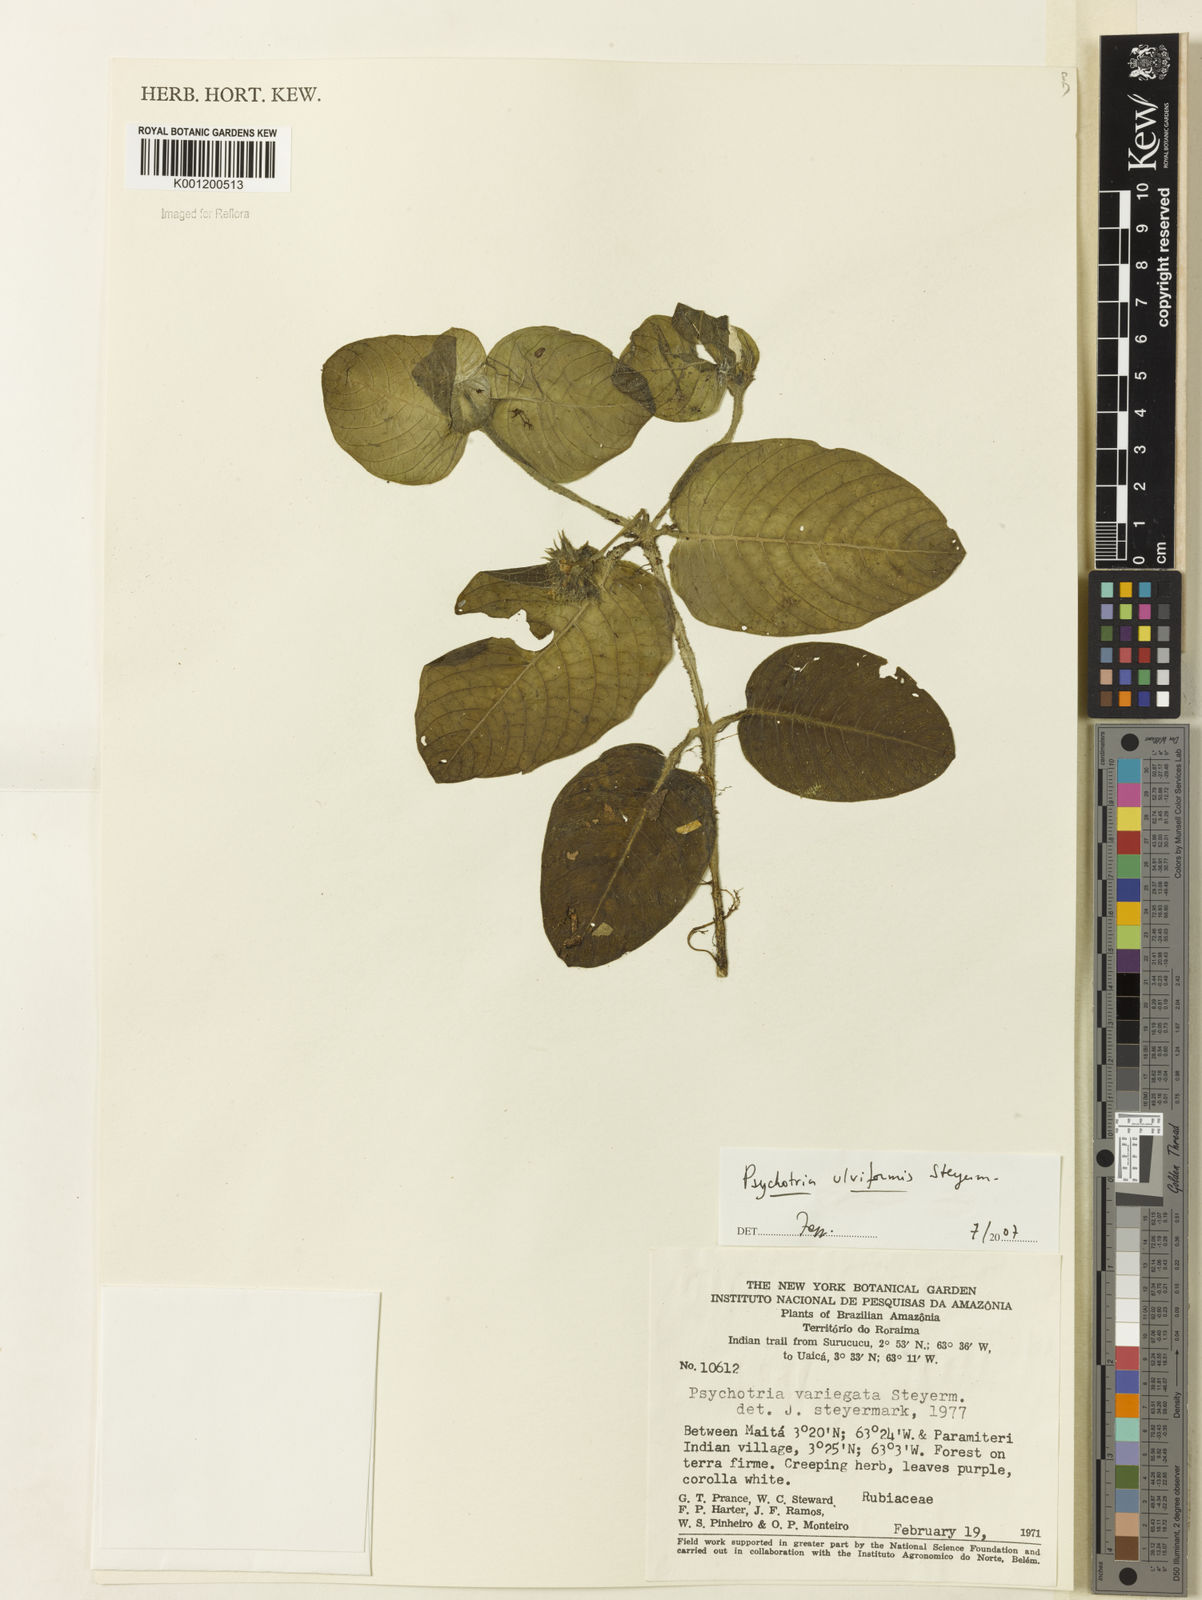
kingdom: Plantae
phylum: Tracheophyta
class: Magnoliopsida
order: Gentianales
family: Rubiaceae
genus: Palicourea
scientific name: Palicourea alba
